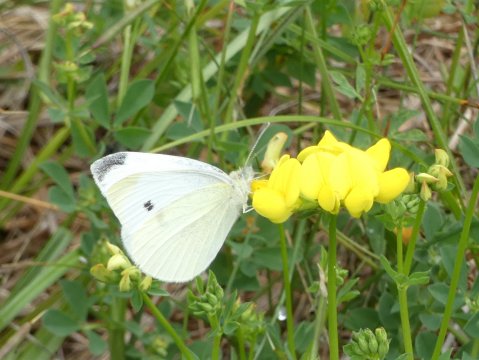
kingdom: Animalia
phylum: Arthropoda
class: Insecta
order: Lepidoptera
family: Pieridae
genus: Pieris
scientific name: Pieris rapae
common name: Cabbage White
